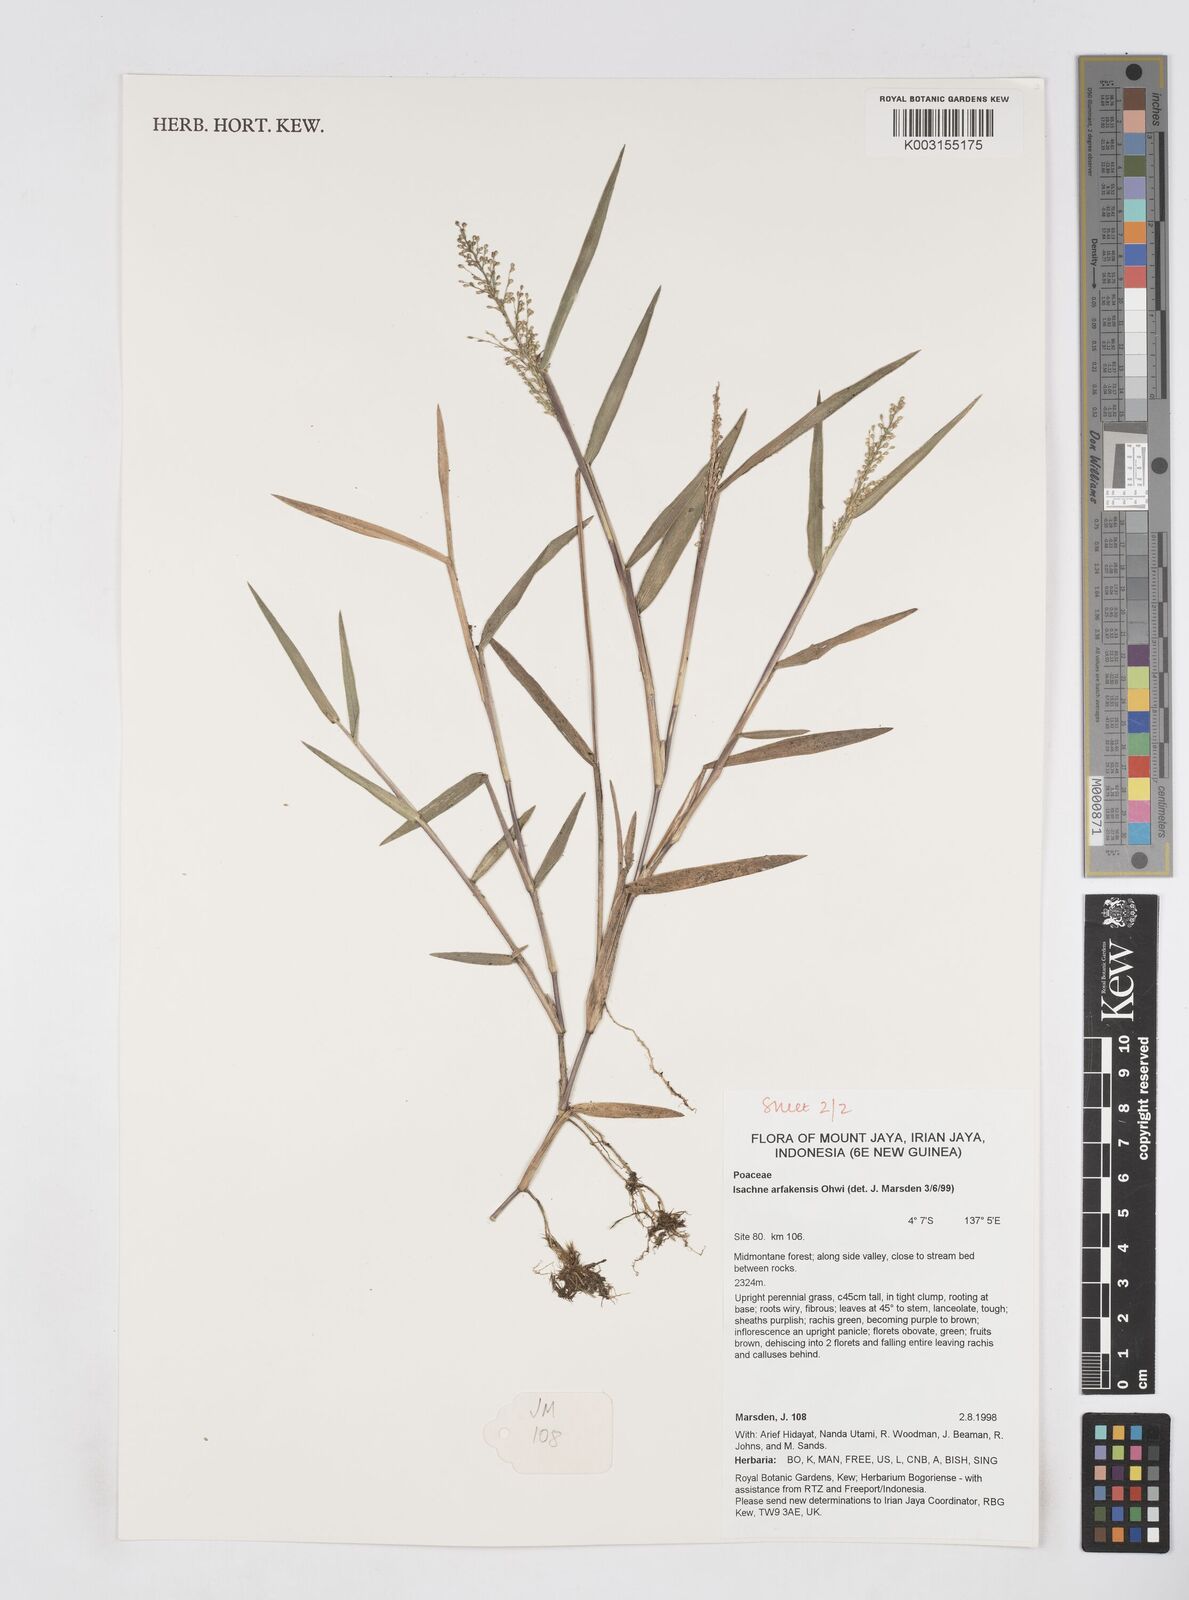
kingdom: Plantae
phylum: Tracheophyta
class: Liliopsida
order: Poales
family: Poaceae
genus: Isachne
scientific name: Isachne arfakensis
